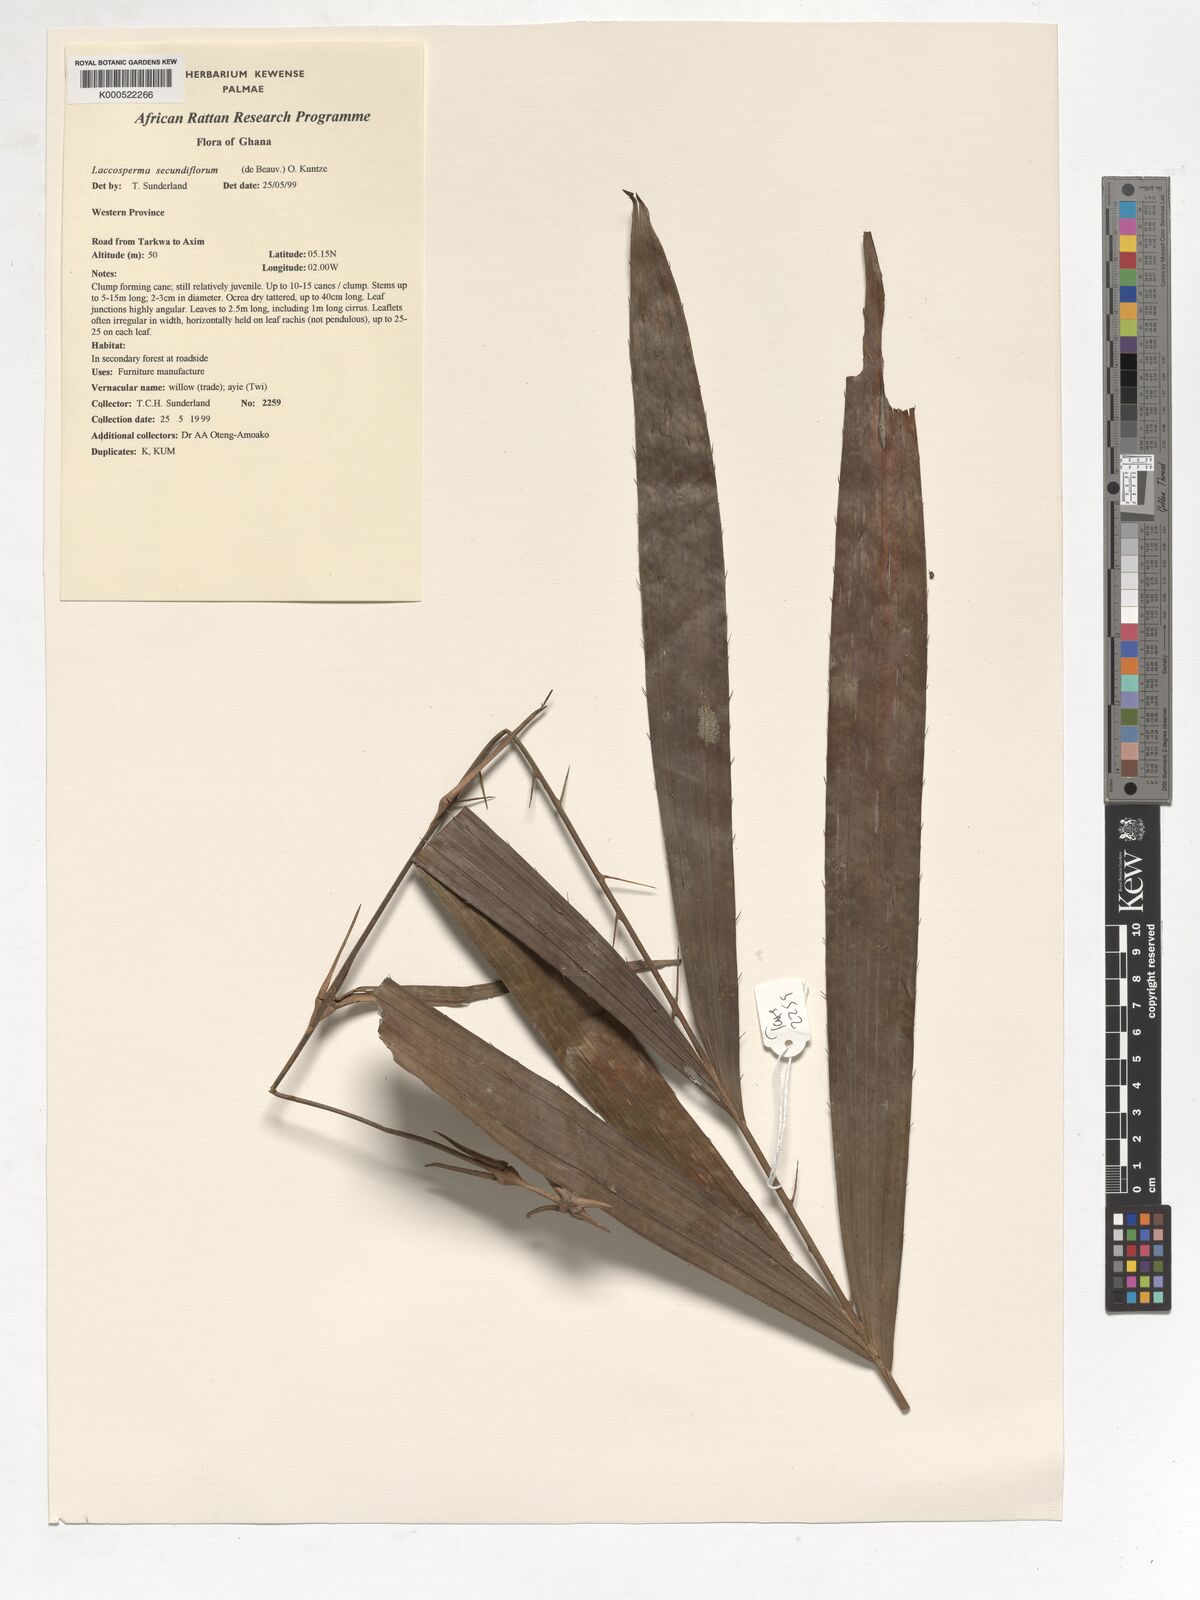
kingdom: Plantae
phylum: Tracheophyta
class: Liliopsida
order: Arecales
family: Arecaceae
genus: Laccosperma
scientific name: Laccosperma secundiflorum
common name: Rattan
